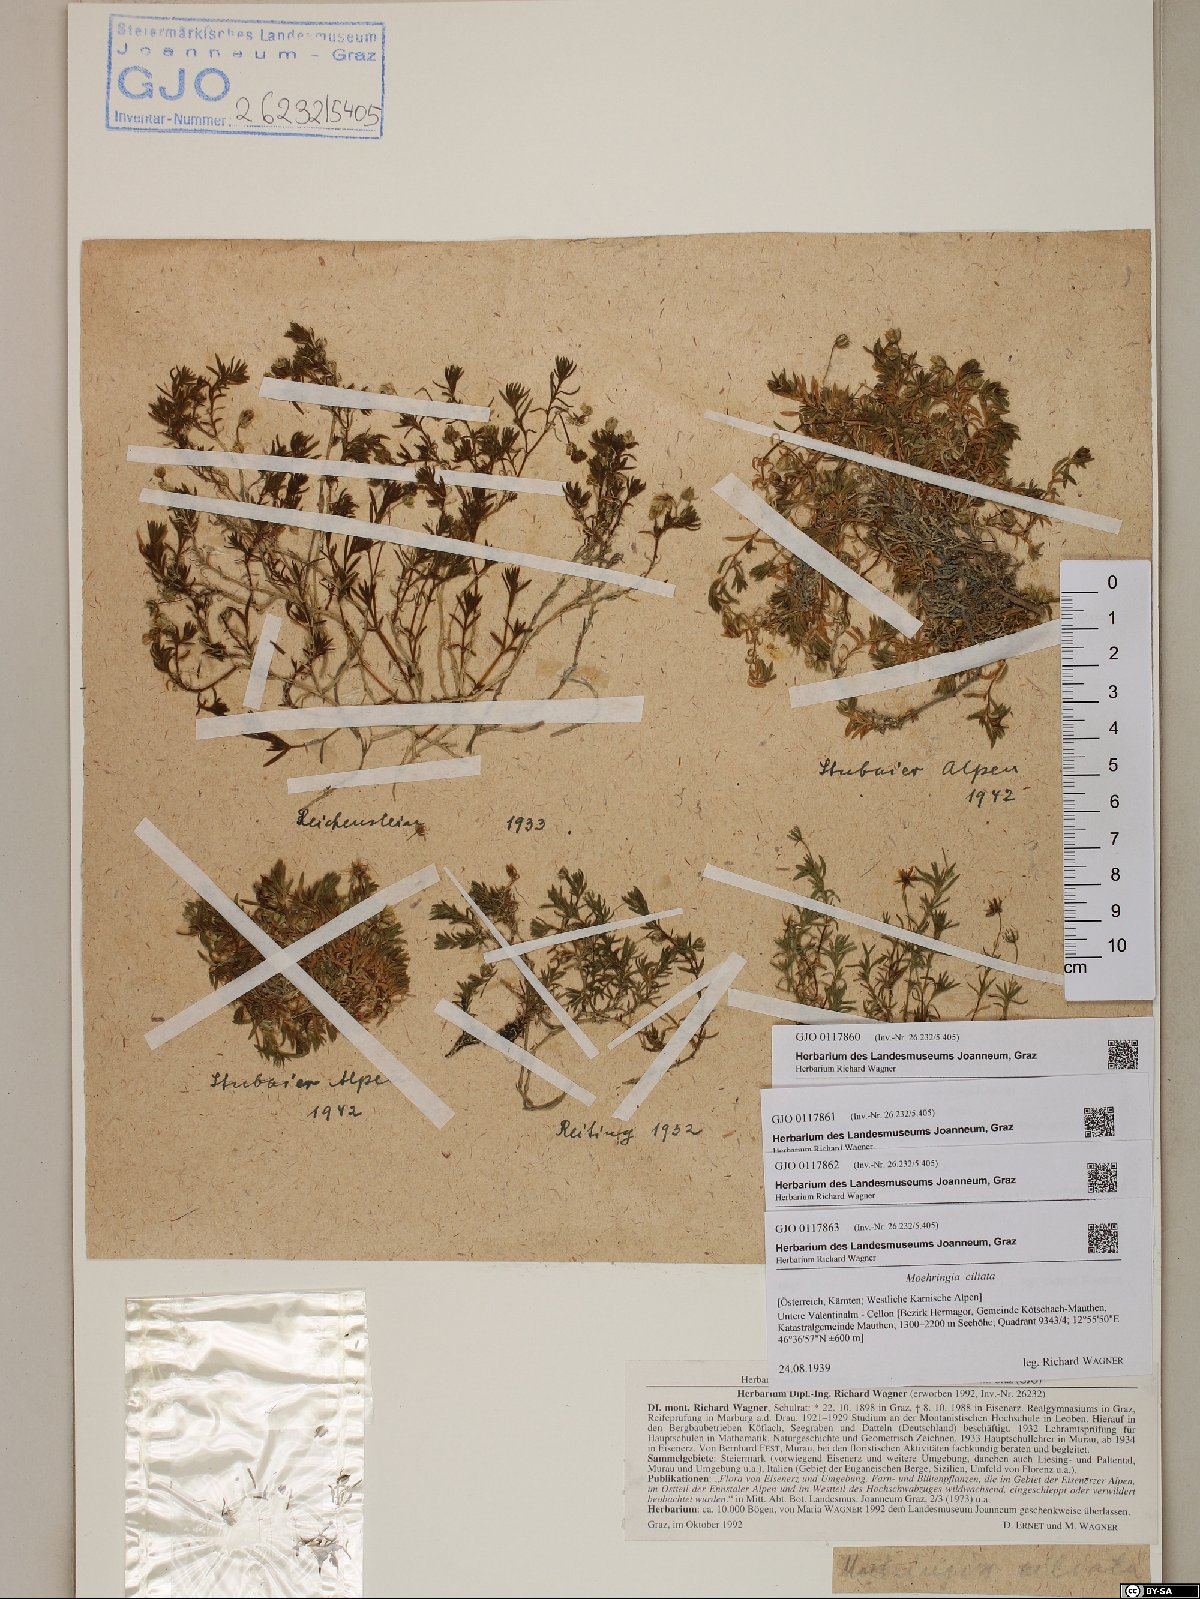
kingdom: Plantae
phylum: Tracheophyta
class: Magnoliopsida
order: Caryophyllales
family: Caryophyllaceae
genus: Moehringia
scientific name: Moehringia ciliata
